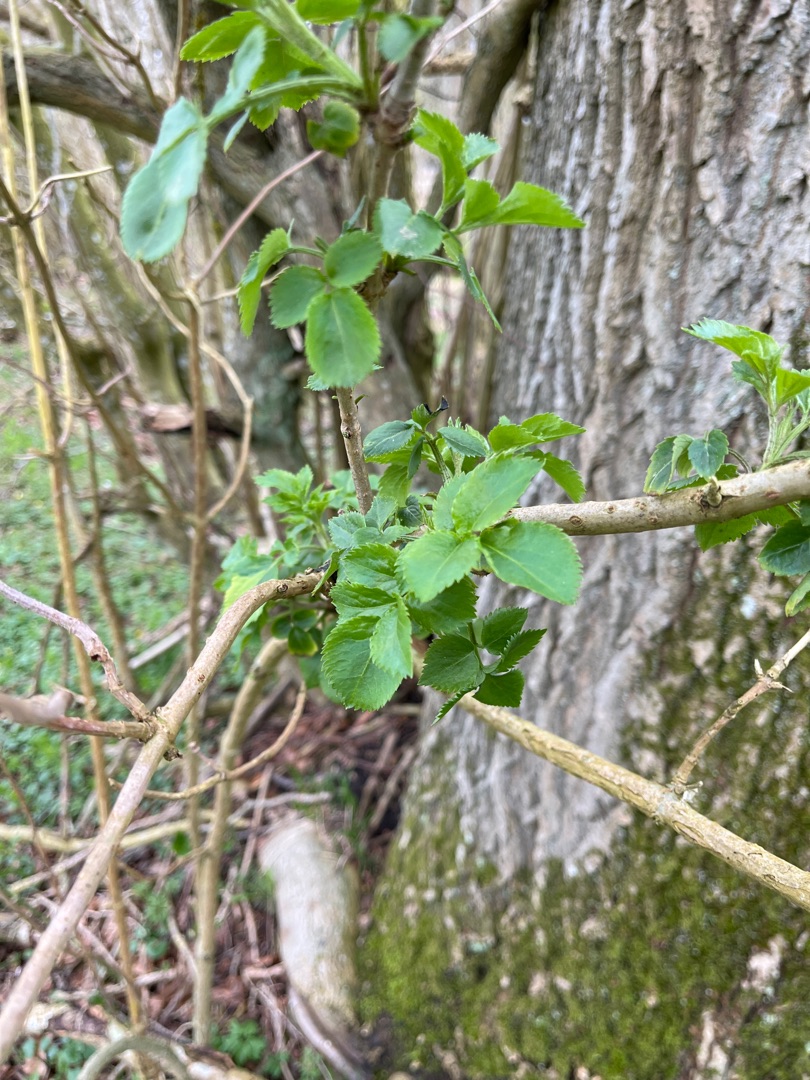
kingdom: Plantae
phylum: Tracheophyta
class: Magnoliopsida
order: Dipsacales
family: Viburnaceae
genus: Sambucus
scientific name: Sambucus nigra
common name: Almindelig hyld
